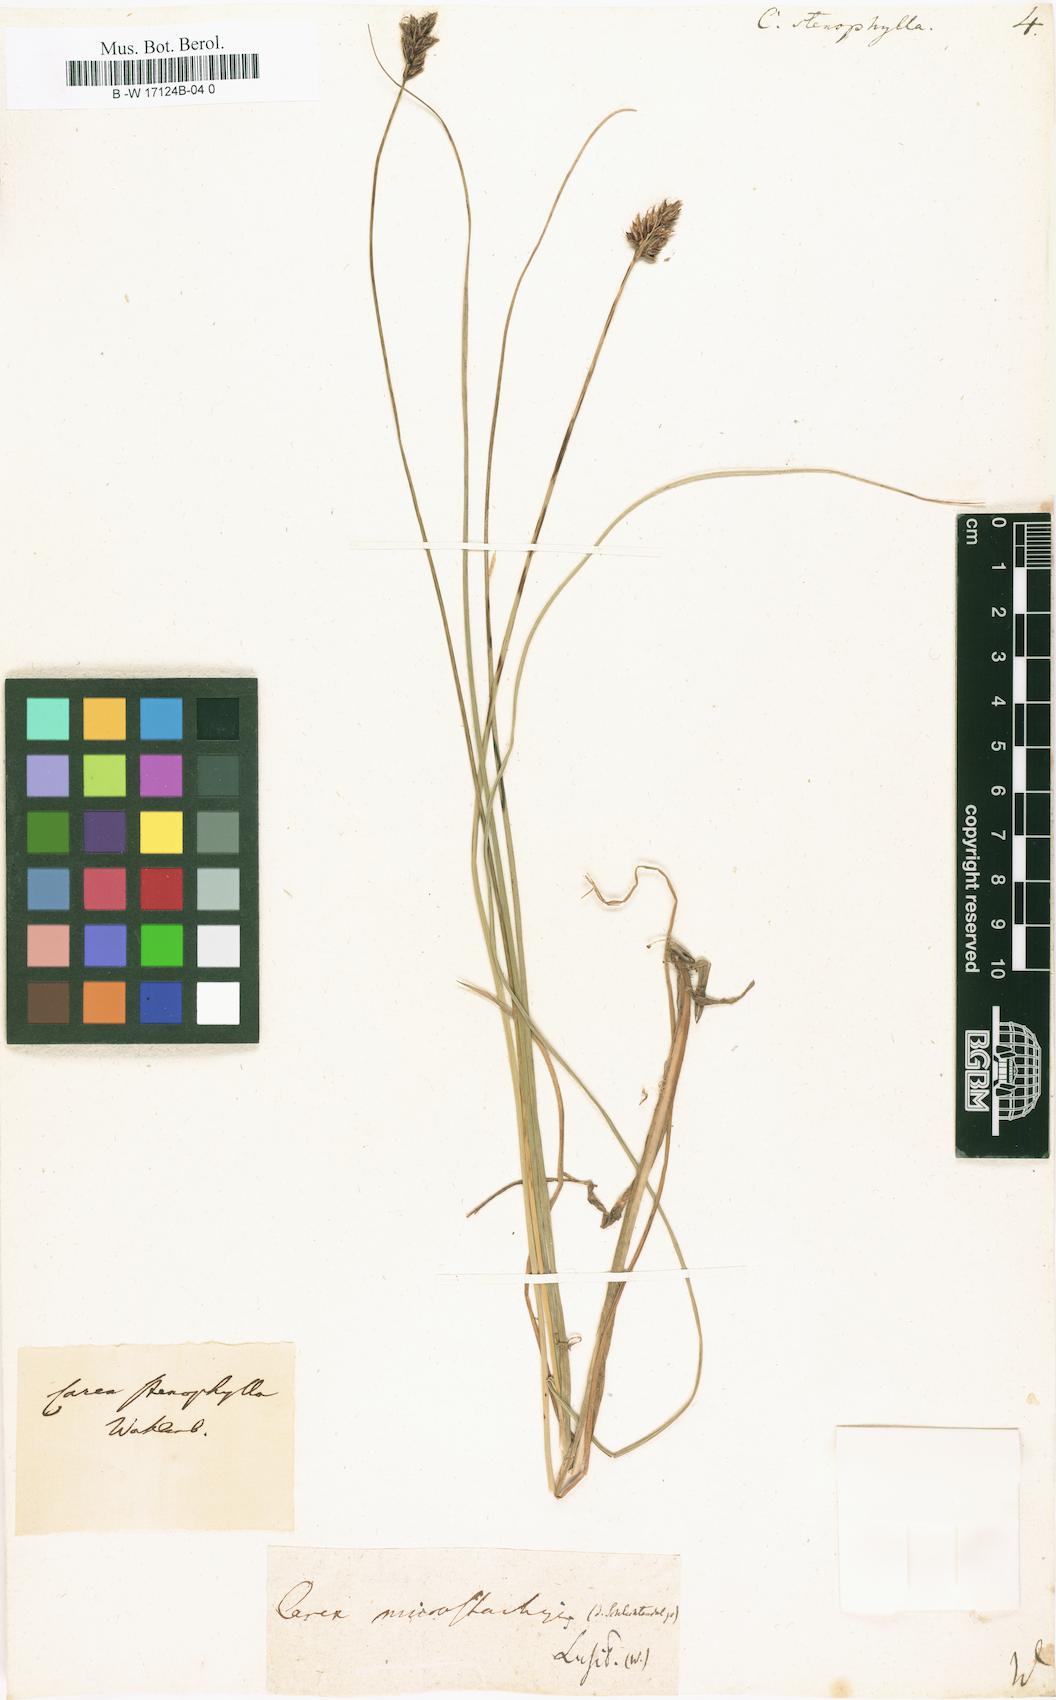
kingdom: Plantae
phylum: Tracheophyta
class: Liliopsida
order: Poales
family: Cyperaceae
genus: Carex
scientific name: Carex stenophylla
